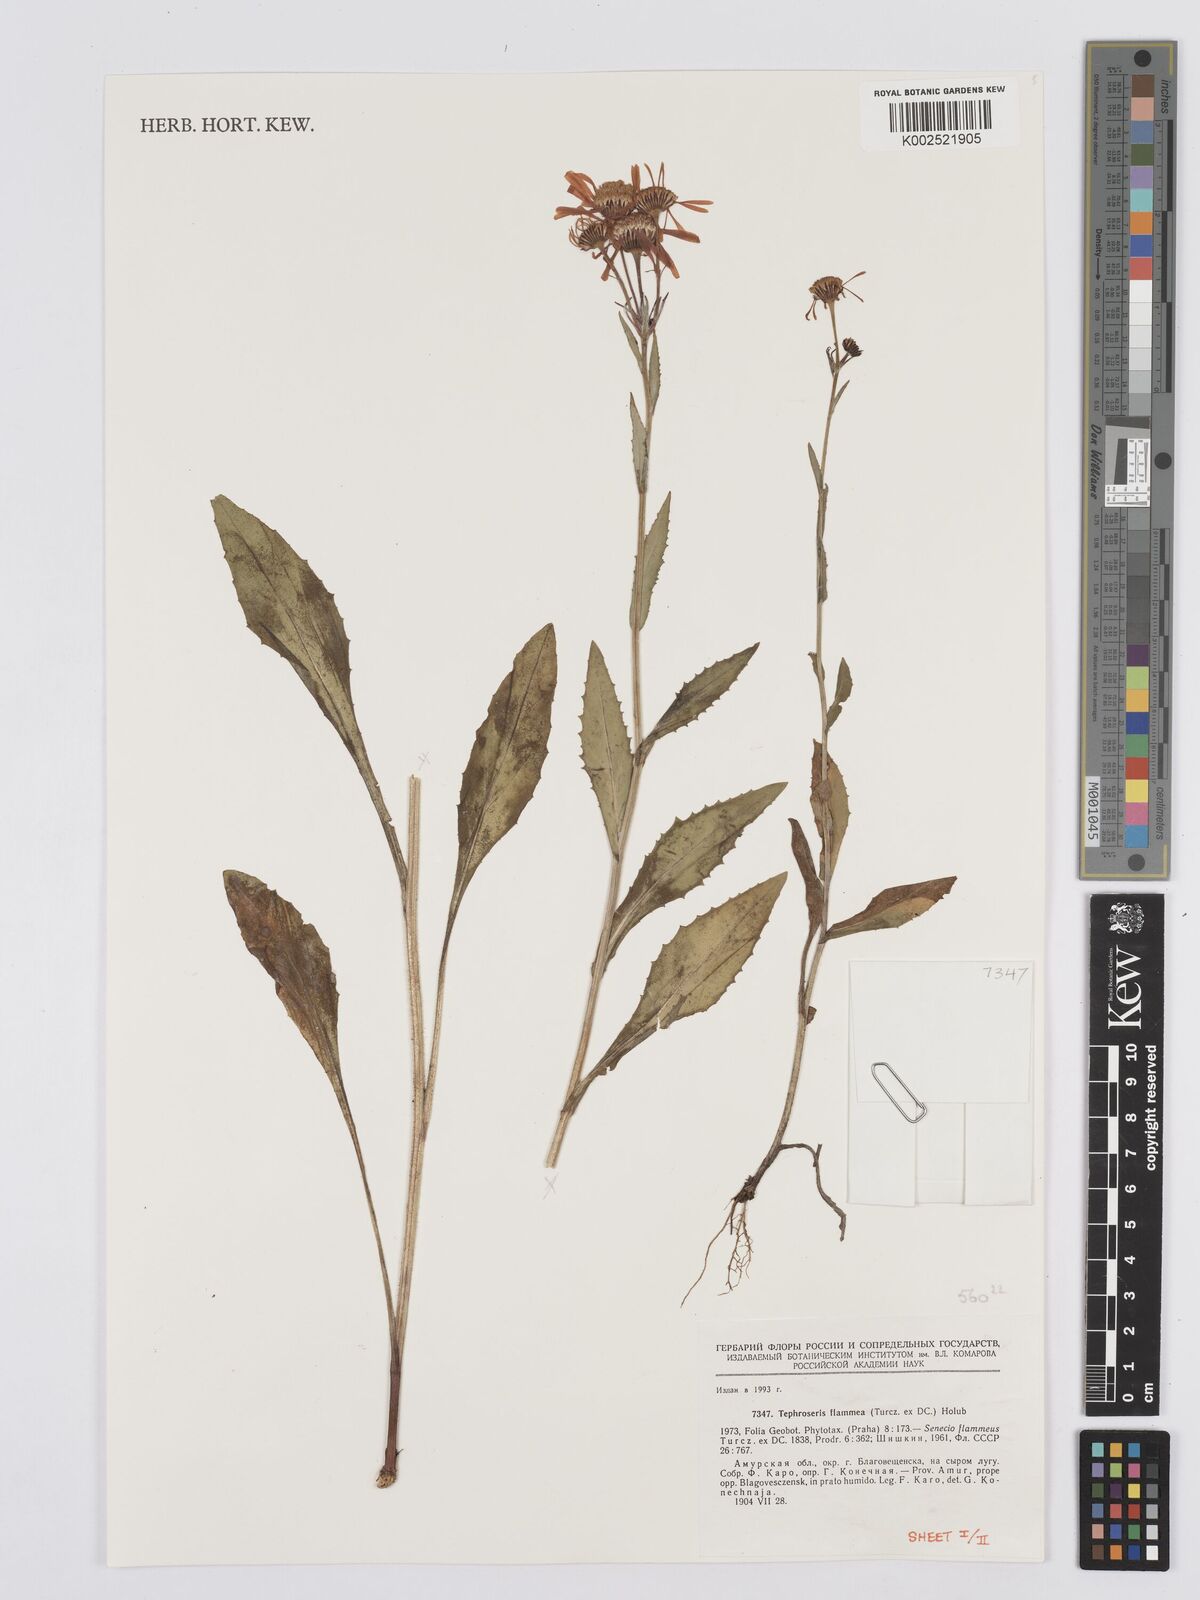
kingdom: Plantae
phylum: Tracheophyta
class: Magnoliopsida
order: Asterales
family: Asteraceae
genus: Tephroseris
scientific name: Tephroseris flammea
